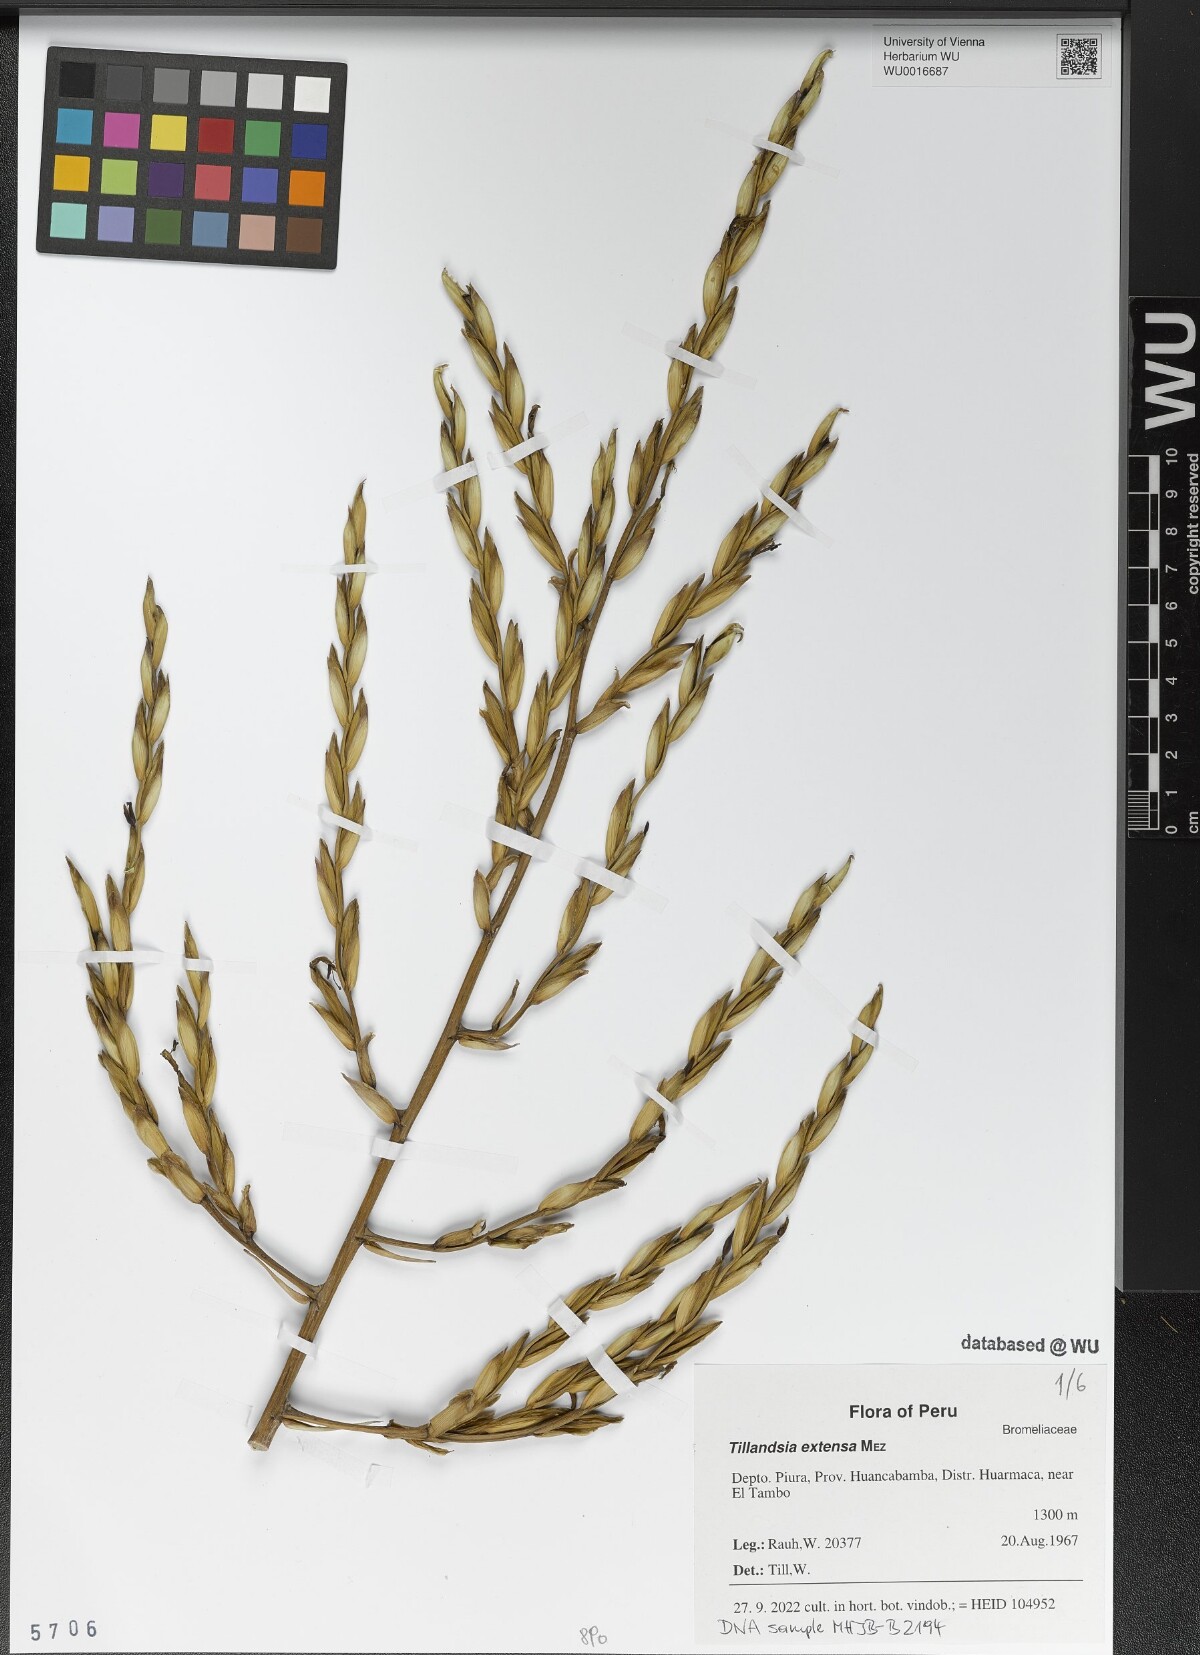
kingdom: Plantae
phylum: Tracheophyta
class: Liliopsida
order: Poales
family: Bromeliaceae
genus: Tillandsia
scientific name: Tillandsia extensa
